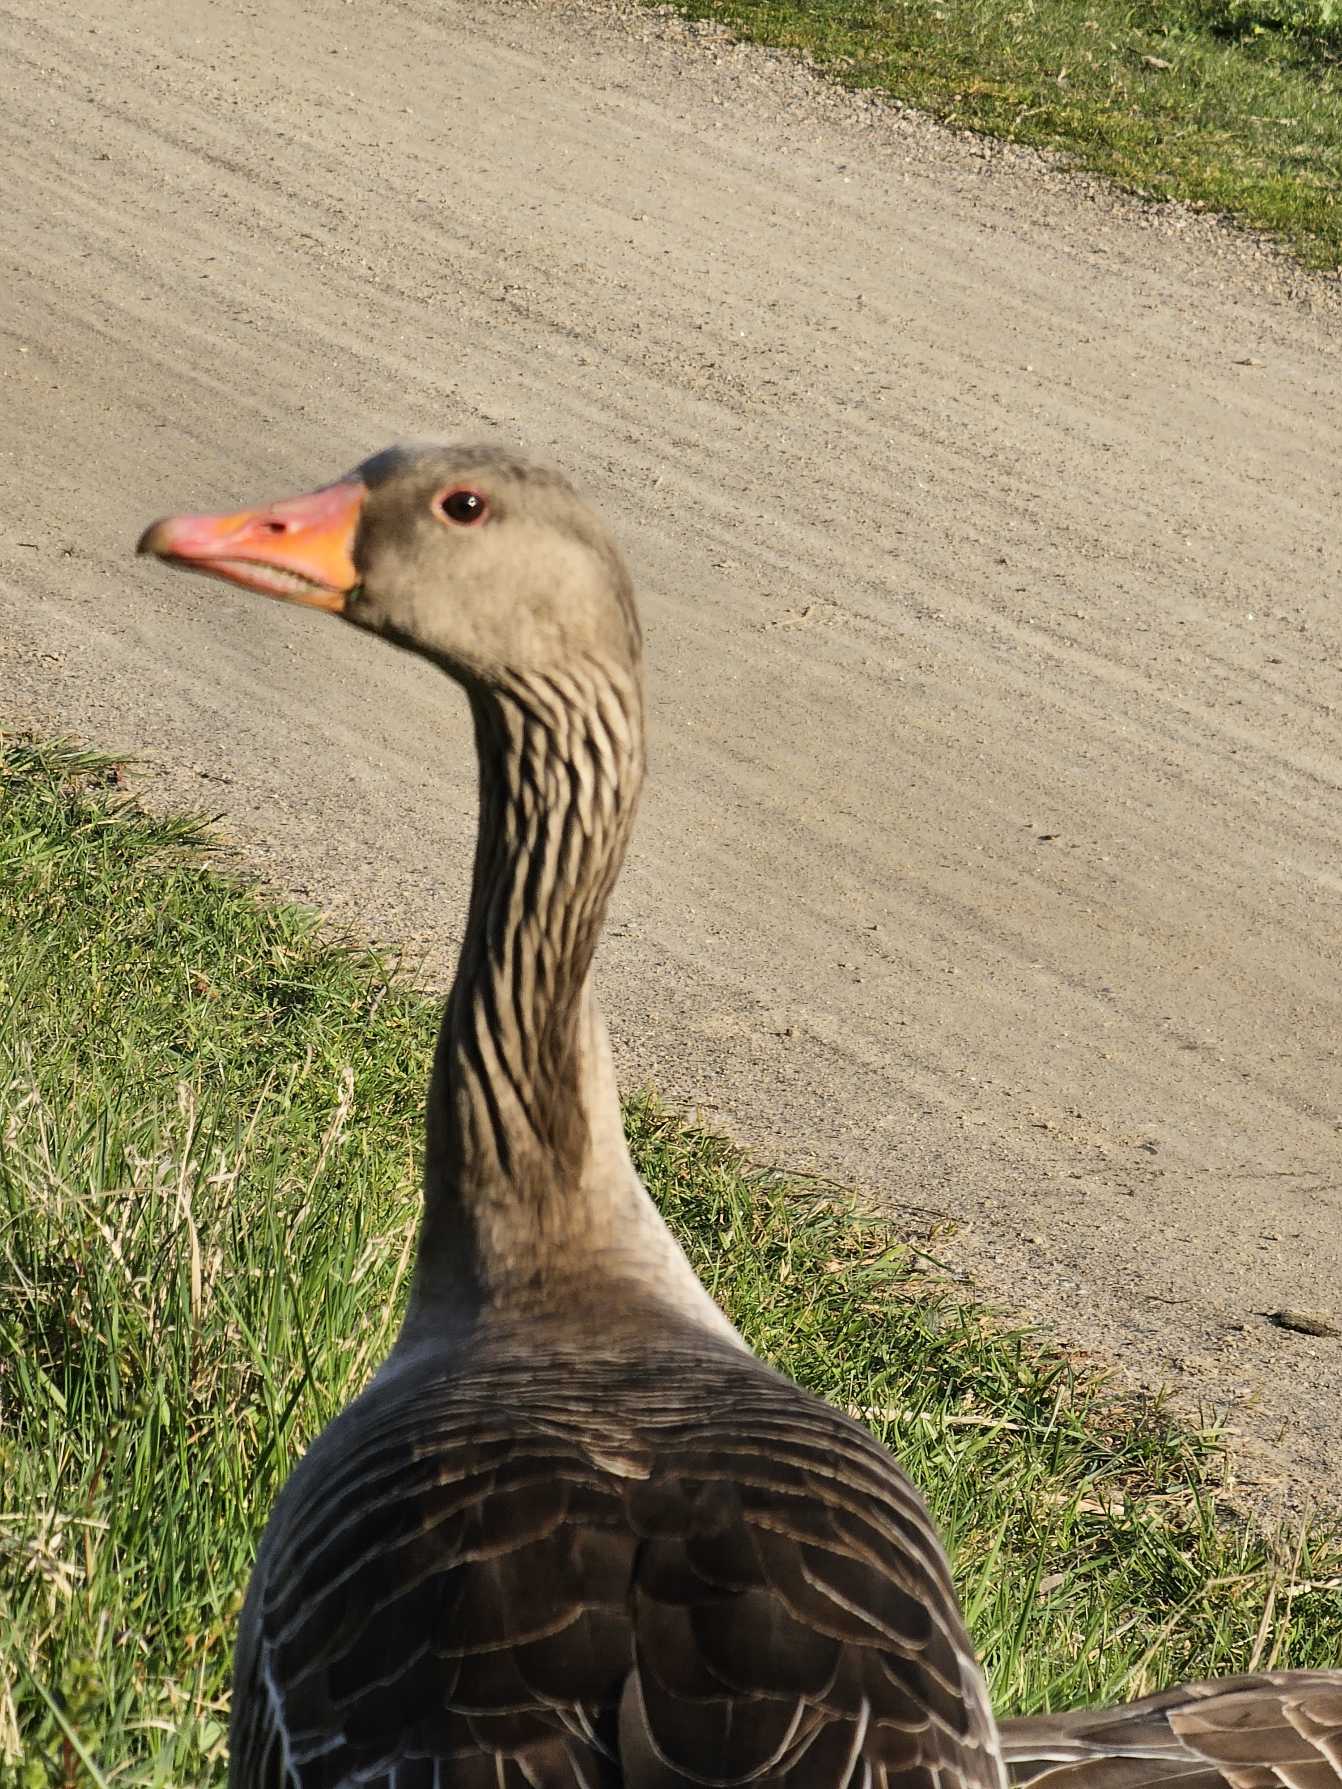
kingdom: Animalia
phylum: Chordata
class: Aves
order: Anseriformes
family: Anatidae
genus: Anser
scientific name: Anser anser
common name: Grågås
